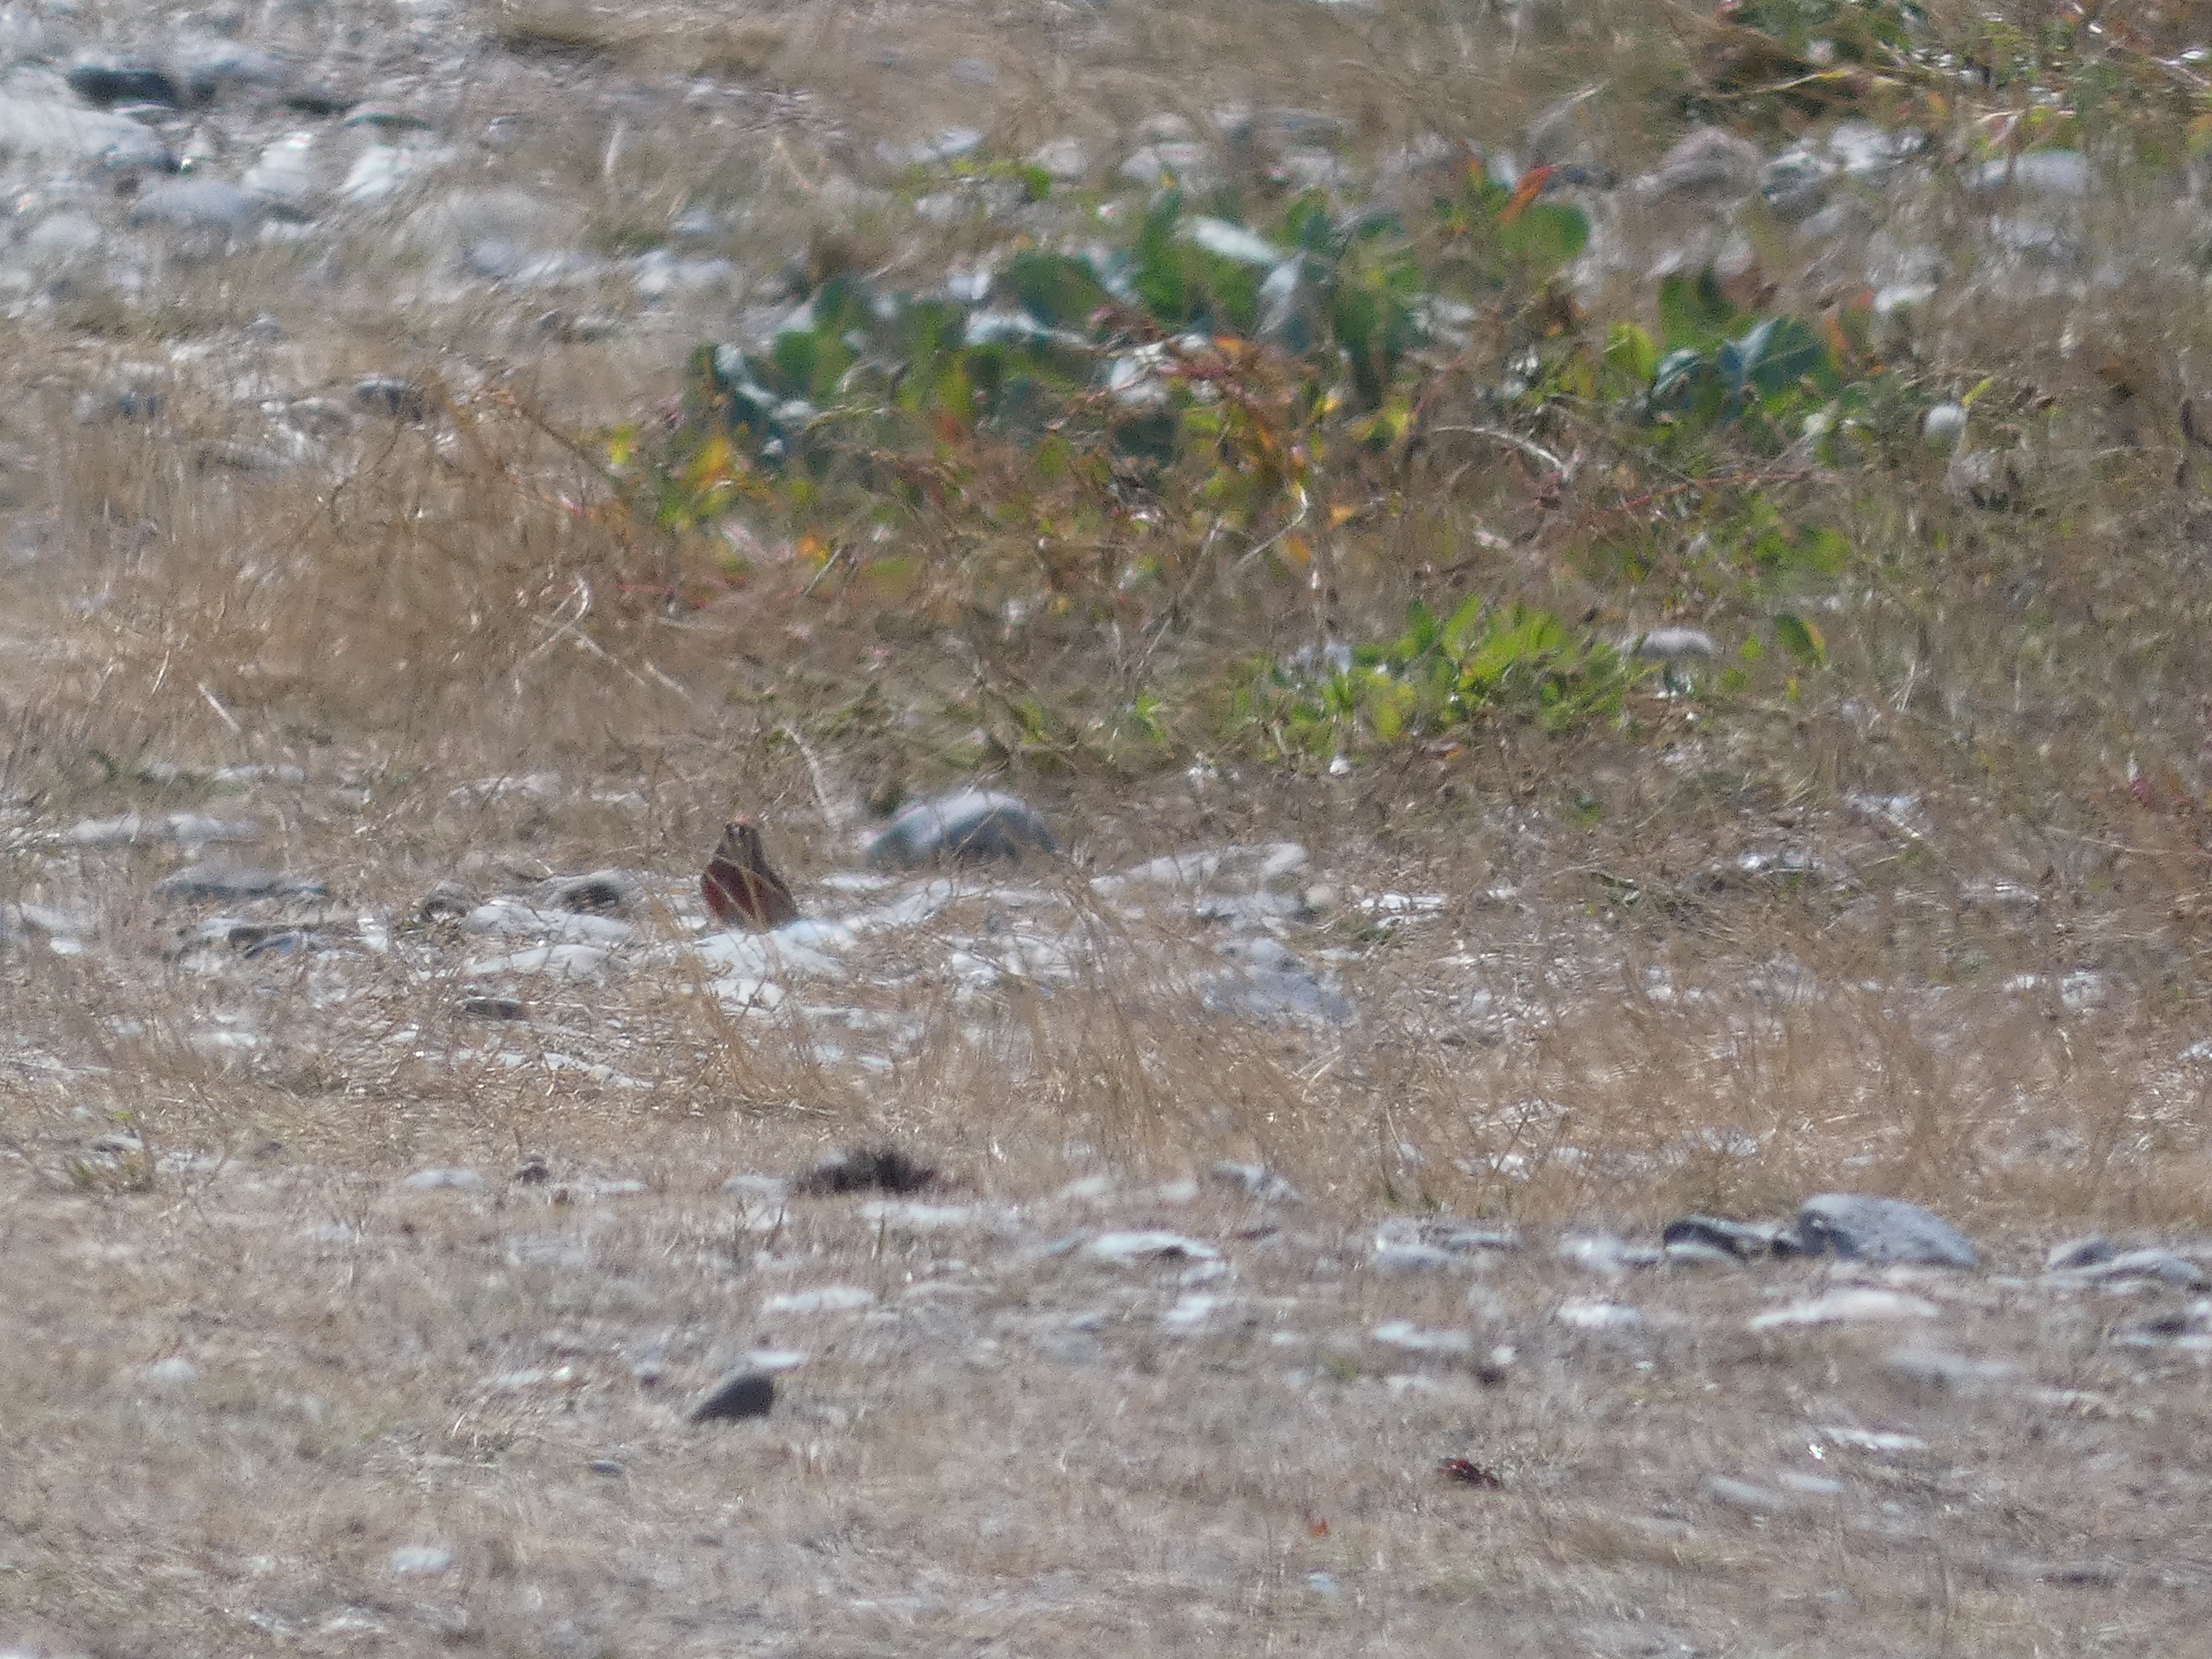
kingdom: Animalia
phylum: Chordata
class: Aves
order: Passeriformes
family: Fringillidae
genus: Linaria
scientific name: Linaria cannabina
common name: Tornirisk
